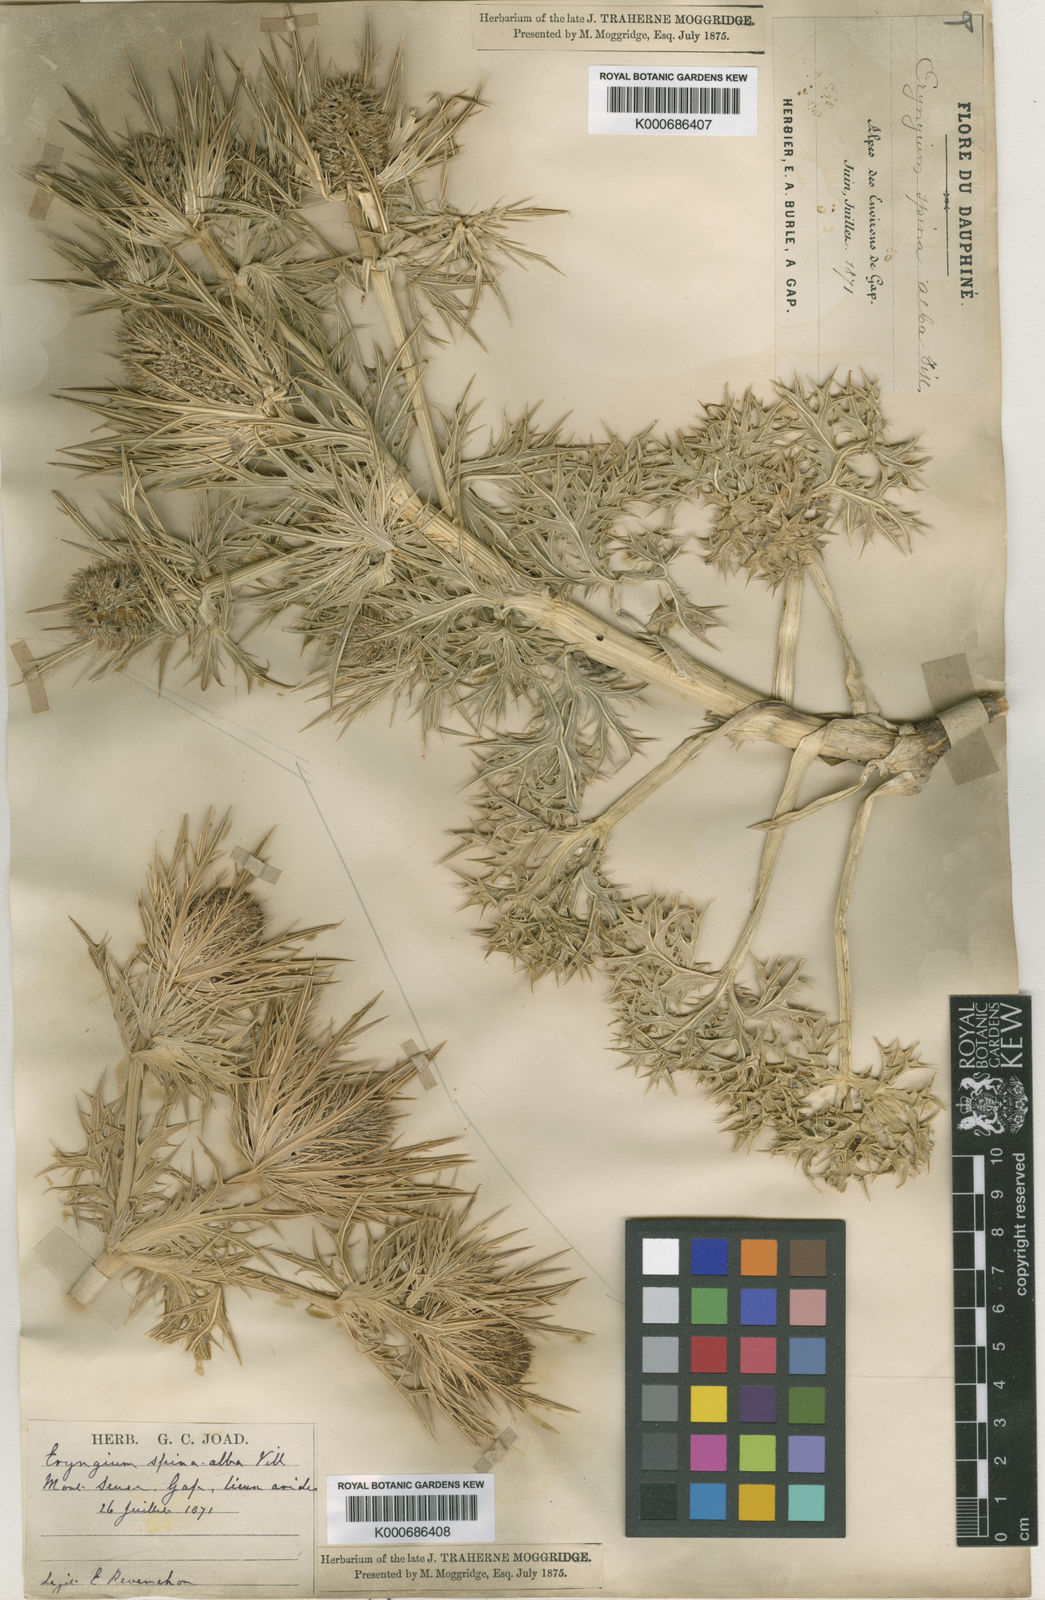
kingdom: Plantae
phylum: Tracheophyta
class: Magnoliopsida
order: Apiales
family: Apiaceae
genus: Eryngium
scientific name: Eryngium spinalba
